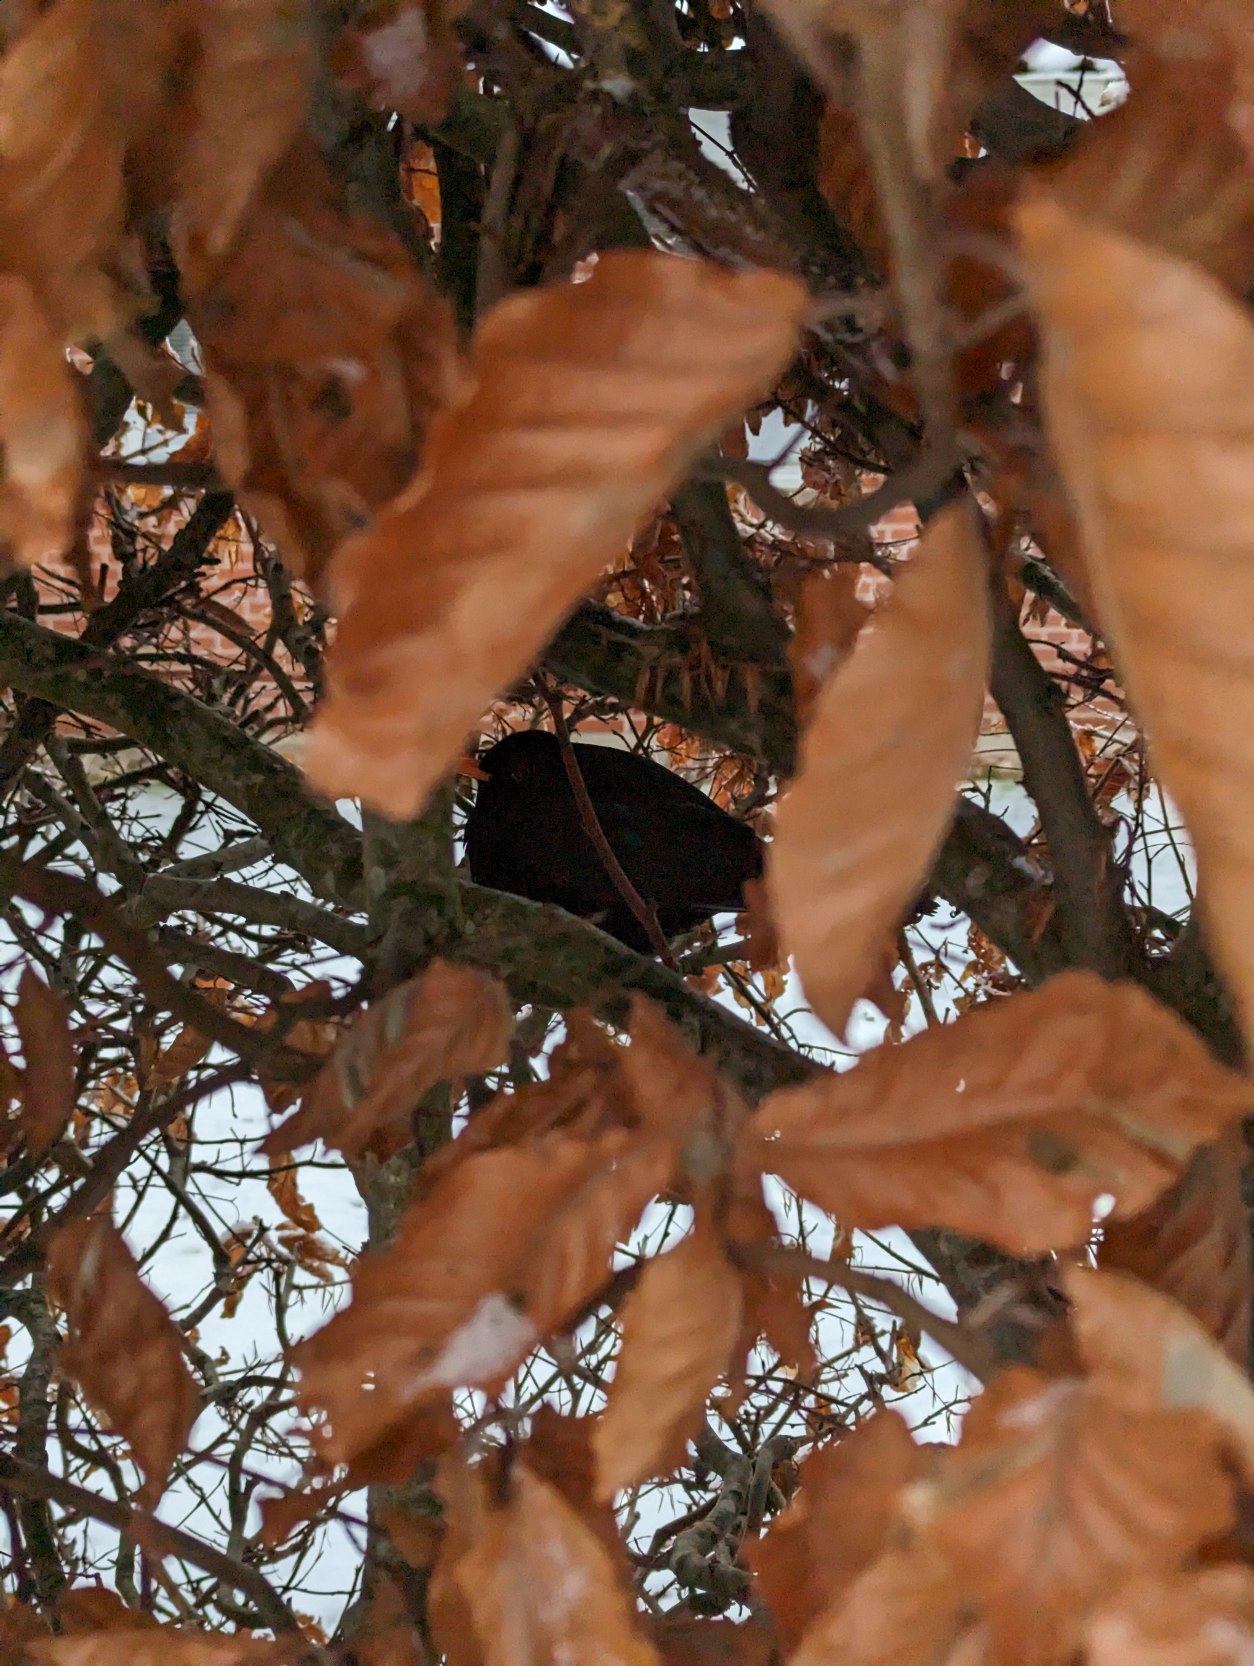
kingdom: Animalia
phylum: Chordata
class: Aves
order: Passeriformes
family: Turdidae
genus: Turdus
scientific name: Turdus merula
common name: Solsort
